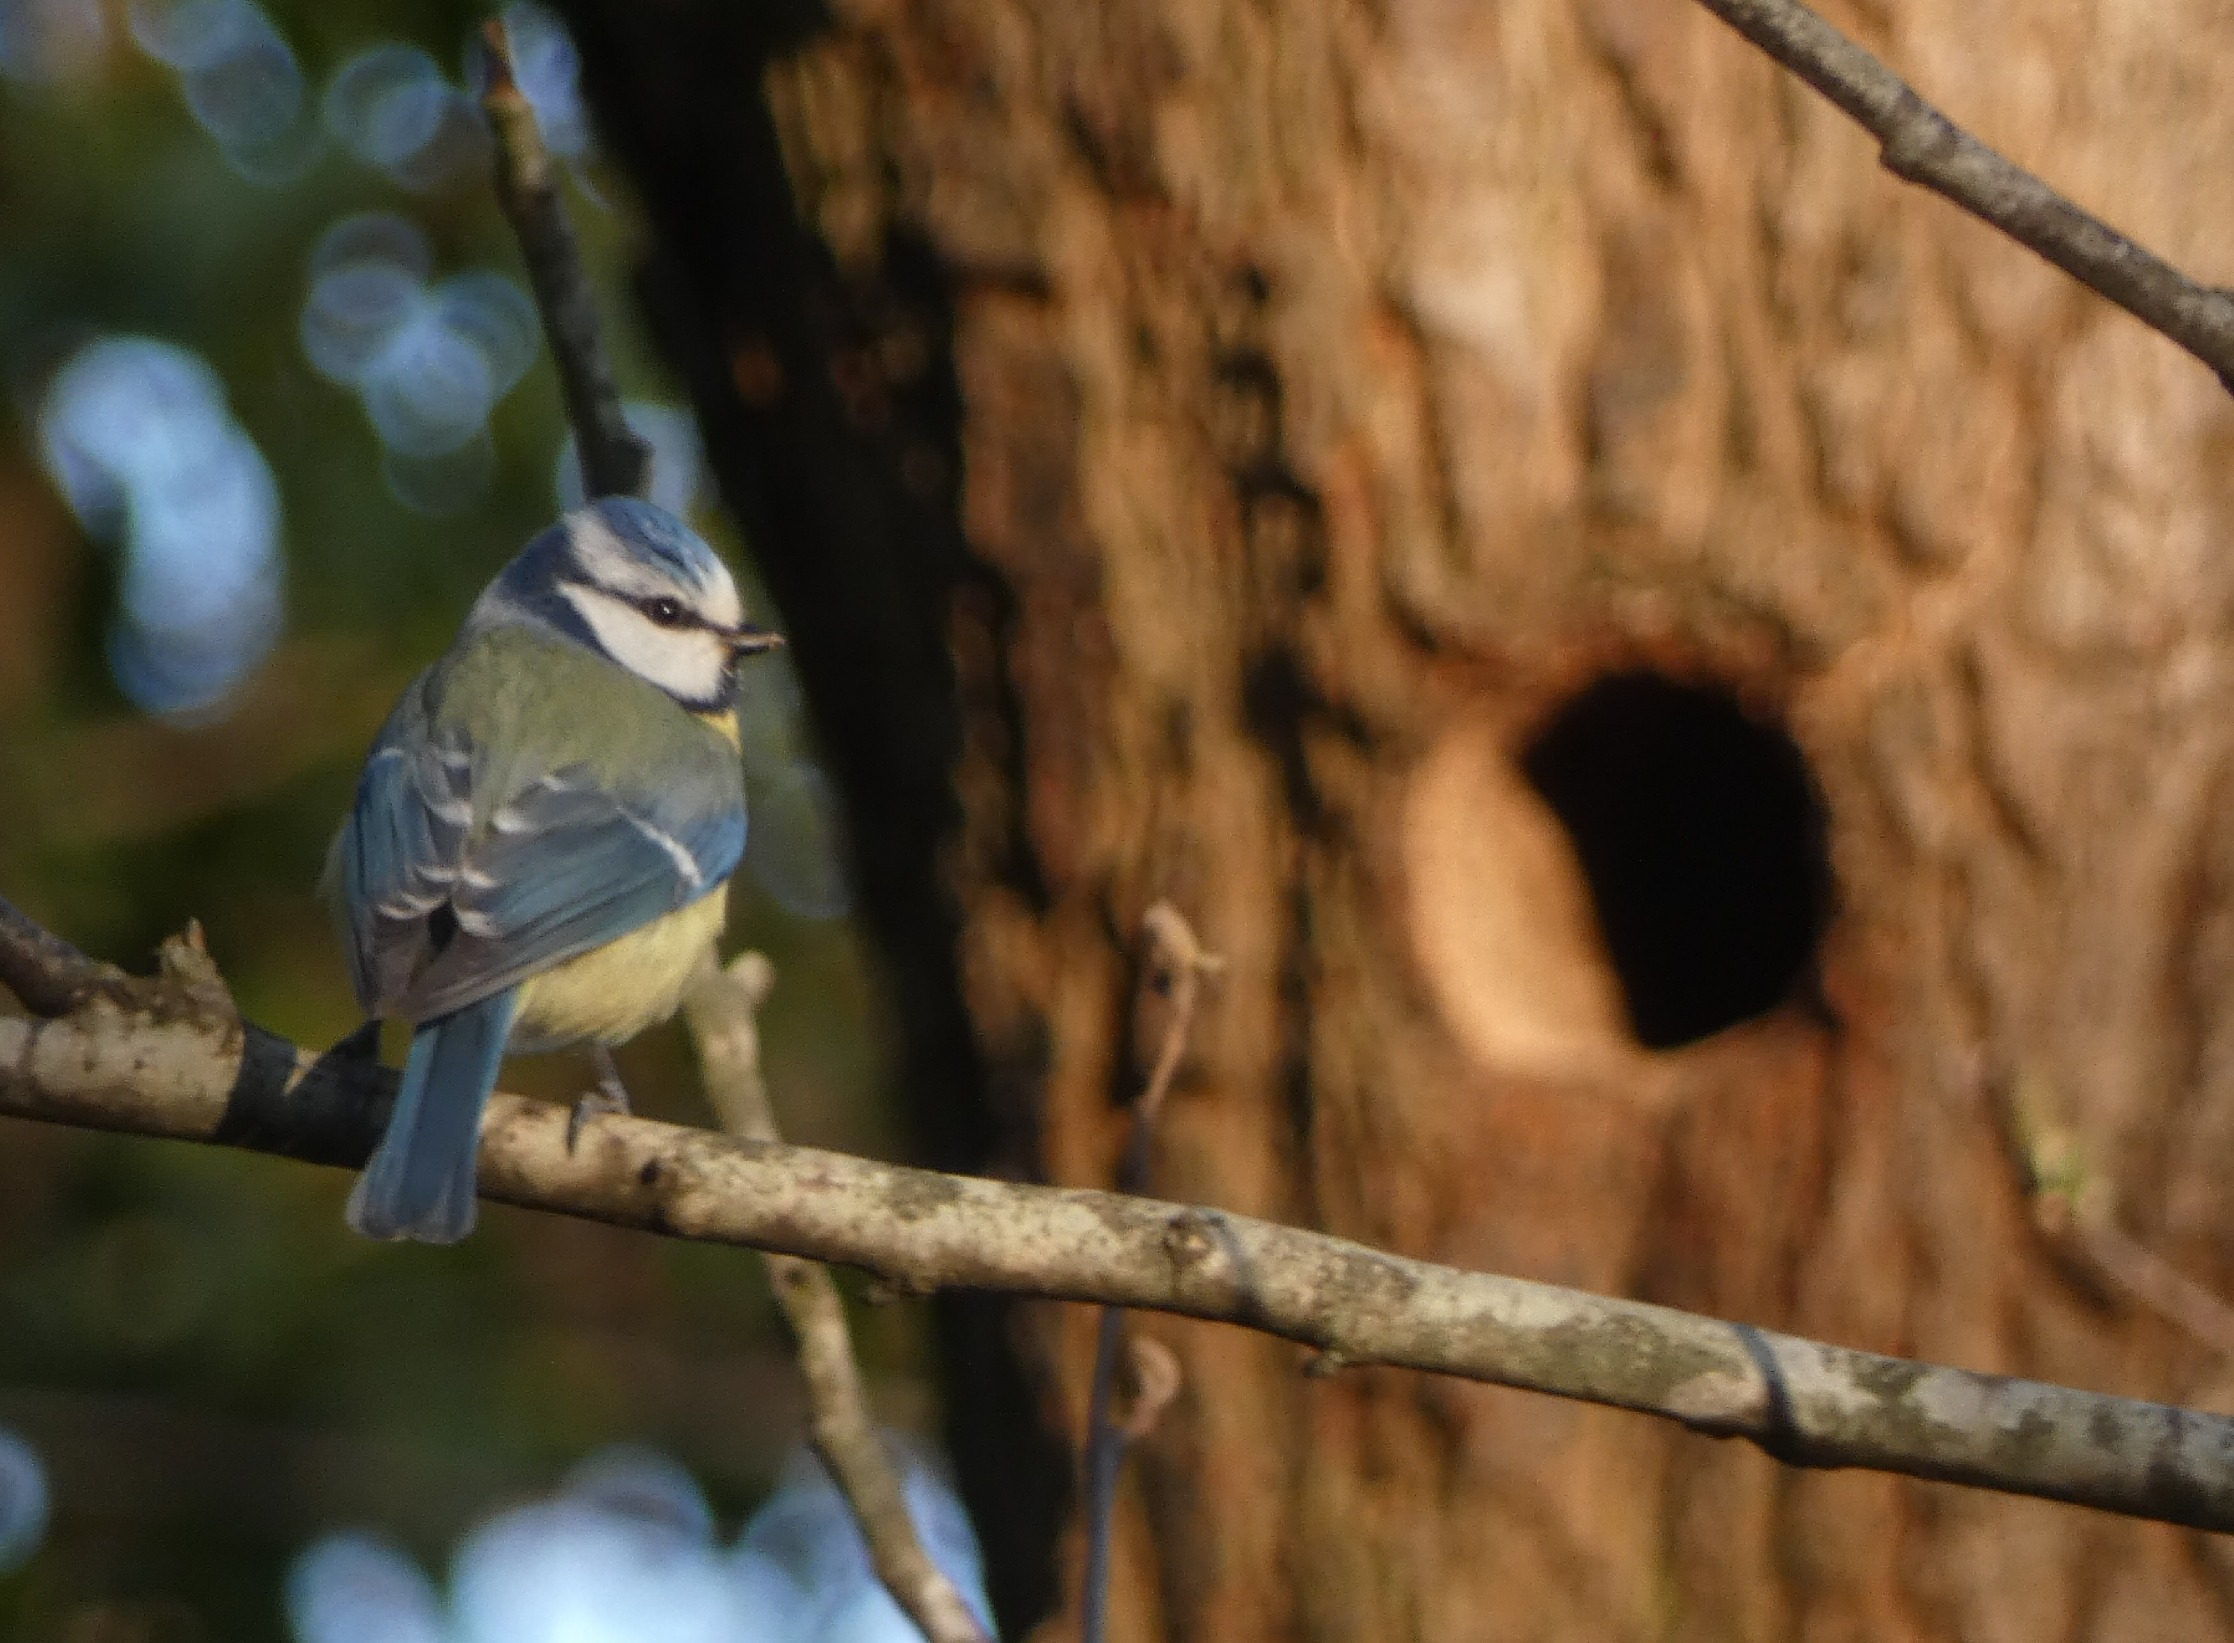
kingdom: Animalia
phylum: Chordata
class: Aves
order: Passeriformes
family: Paridae
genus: Cyanistes
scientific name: Cyanistes caeruleus
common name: Blåmejse
